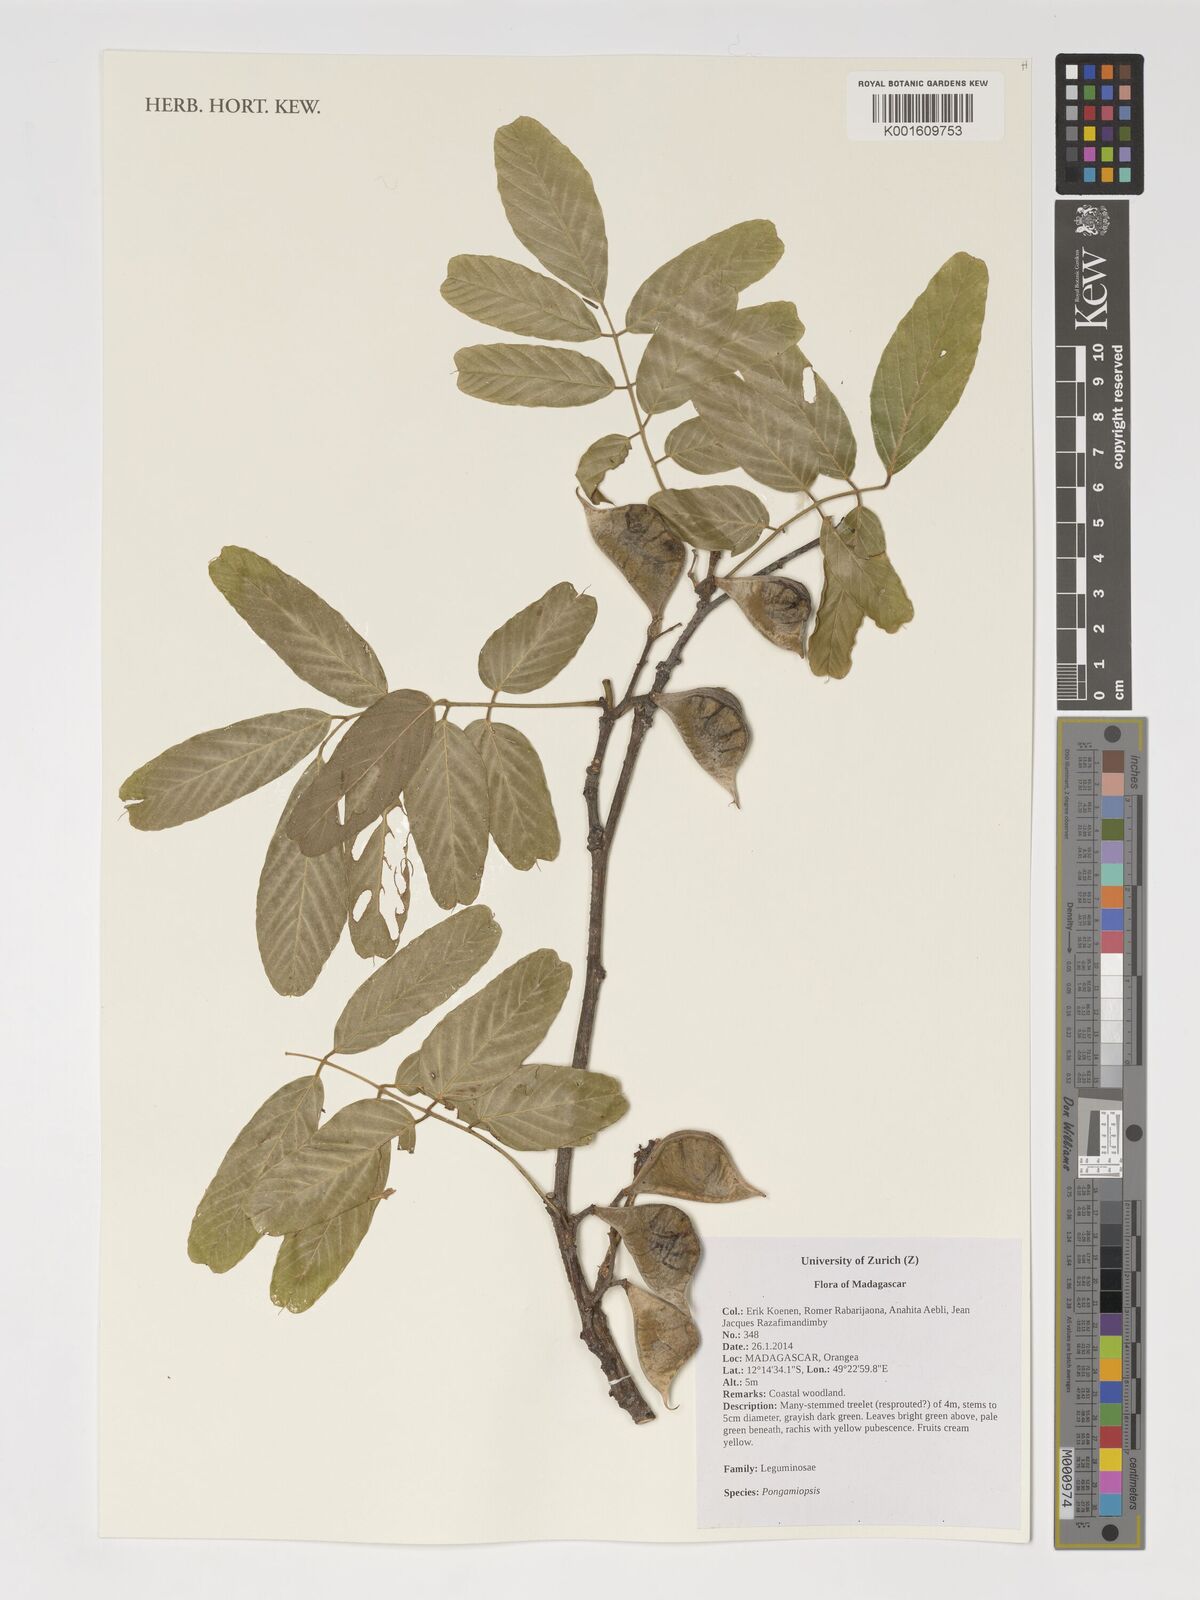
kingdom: Plantae
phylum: Tracheophyta
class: Magnoliopsida
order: Fabales
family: Fabaceae
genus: Pongamiopsis
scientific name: Pongamiopsis
